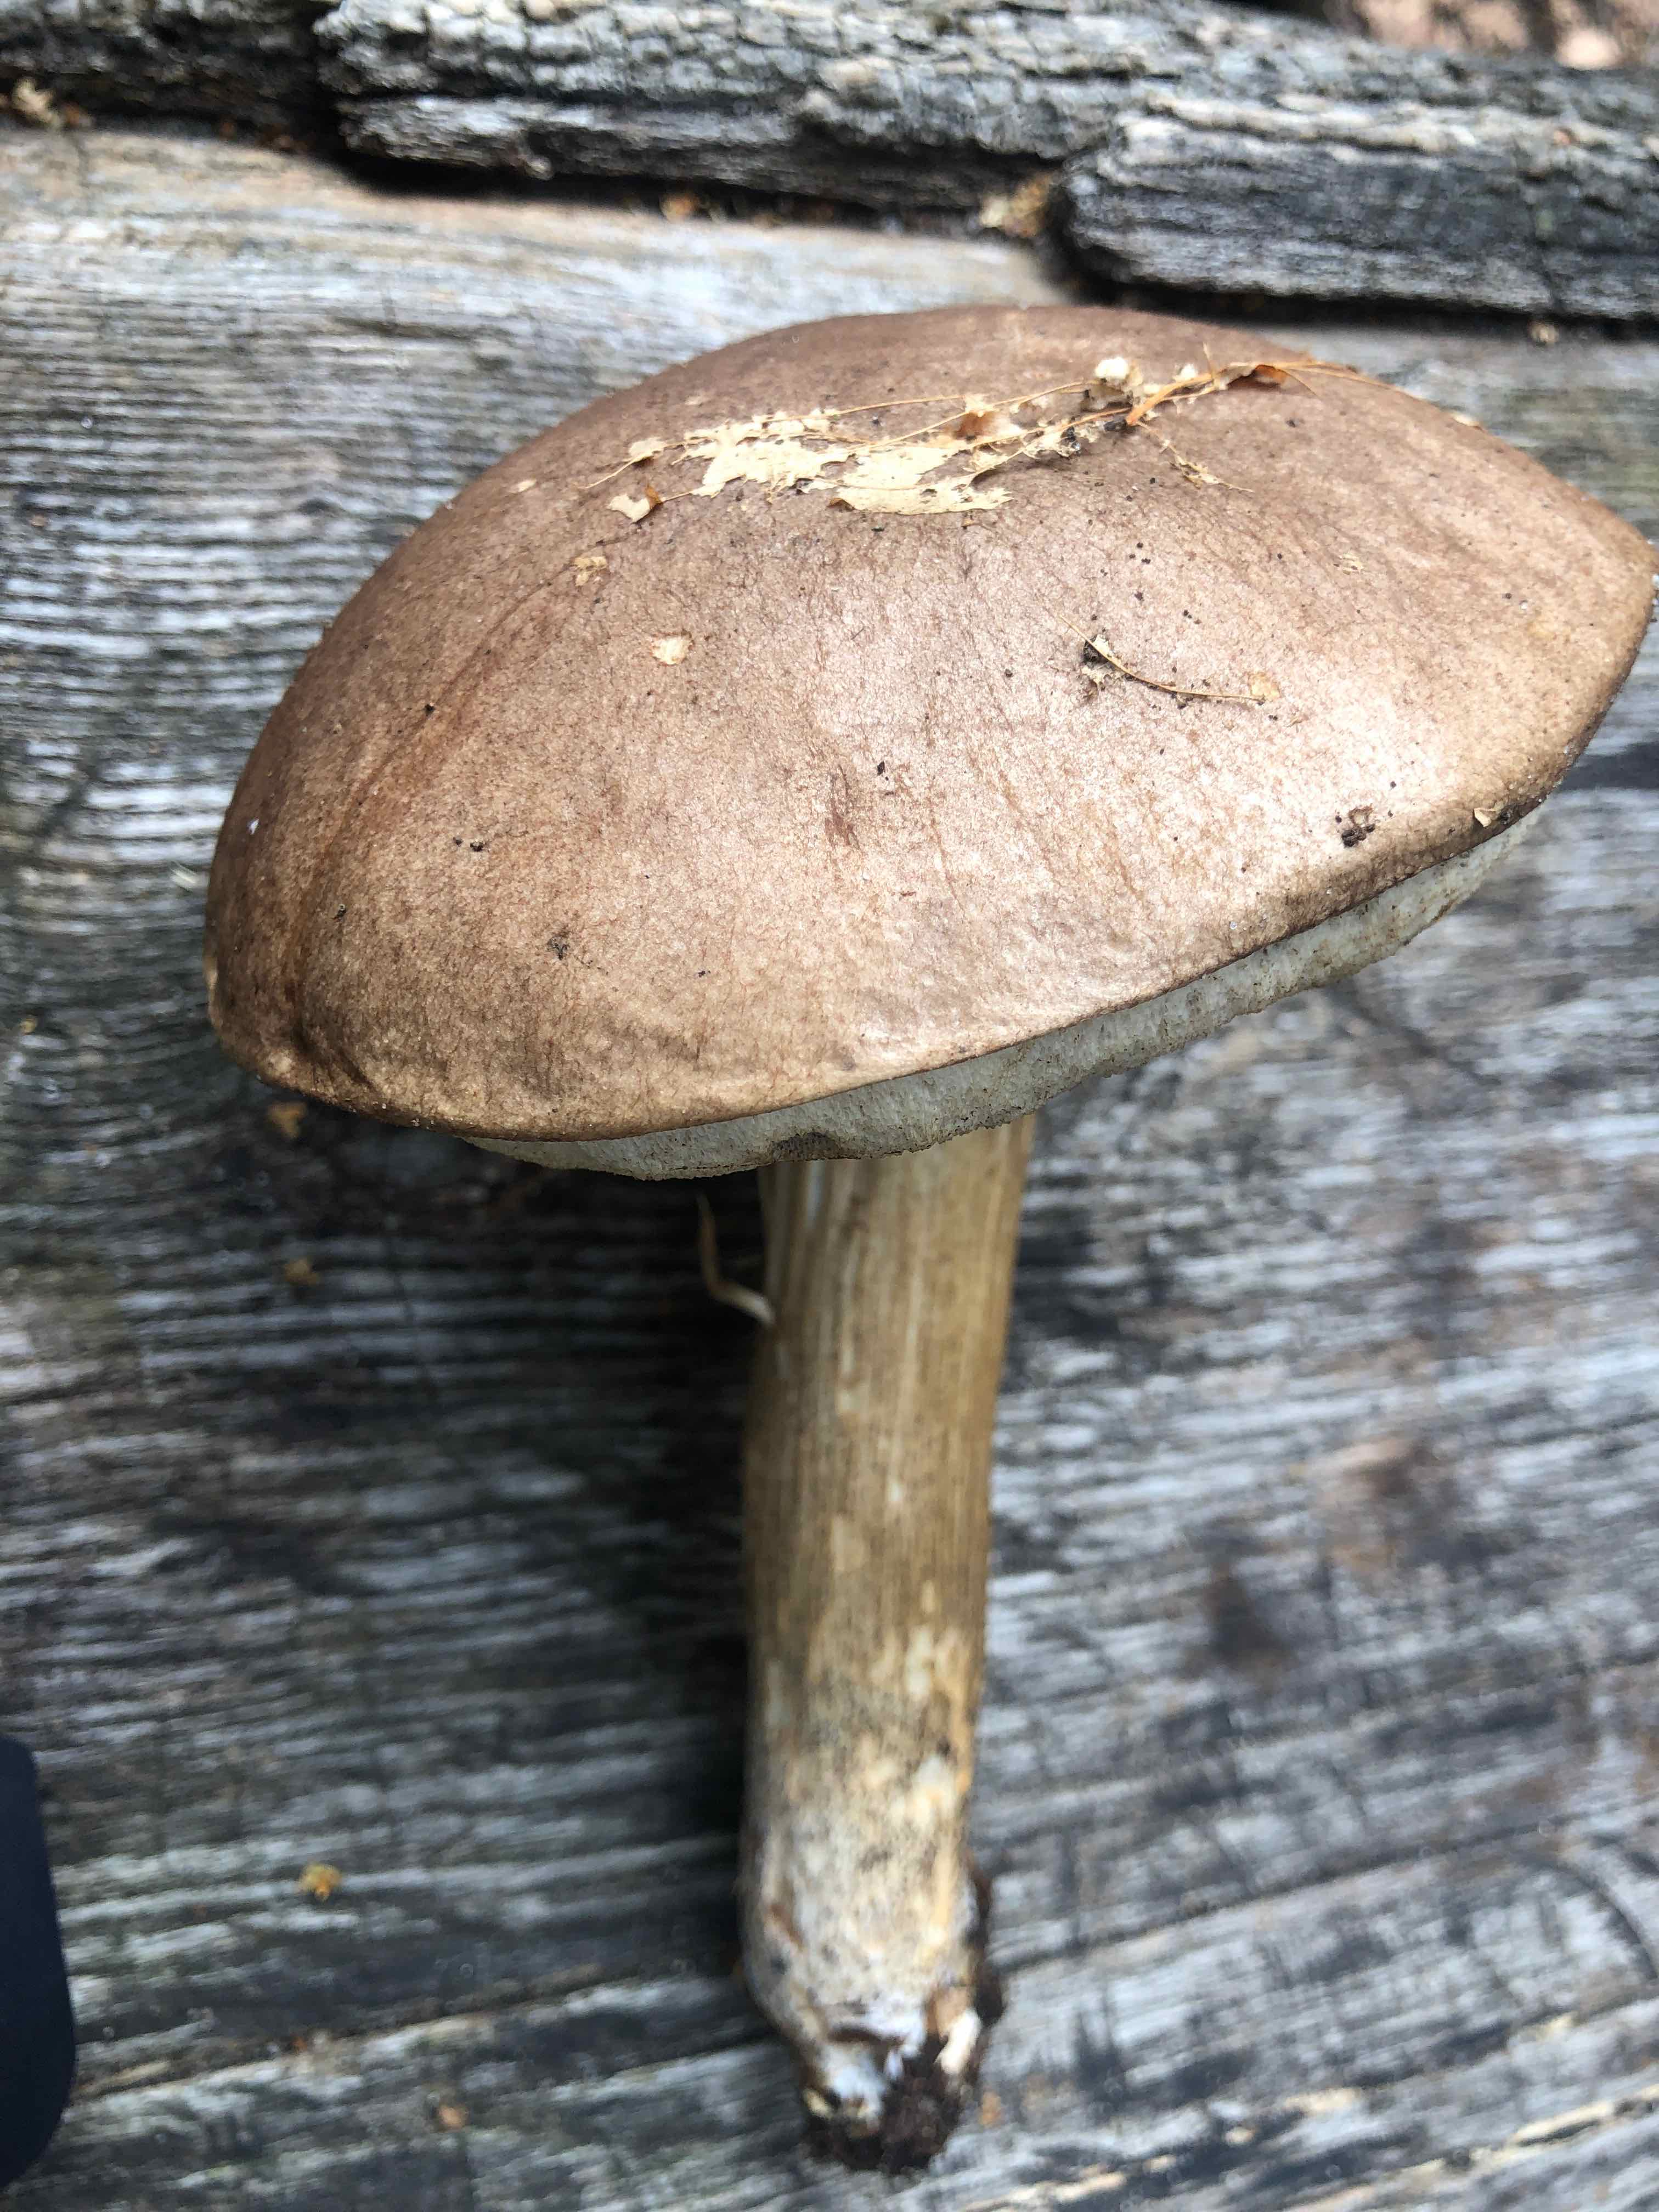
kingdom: Fungi
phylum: Basidiomycota
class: Agaricomycetes
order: Boletales
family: Boletaceae
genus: Leccinum
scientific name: Leccinum scabrum
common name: brun skælrørhat
